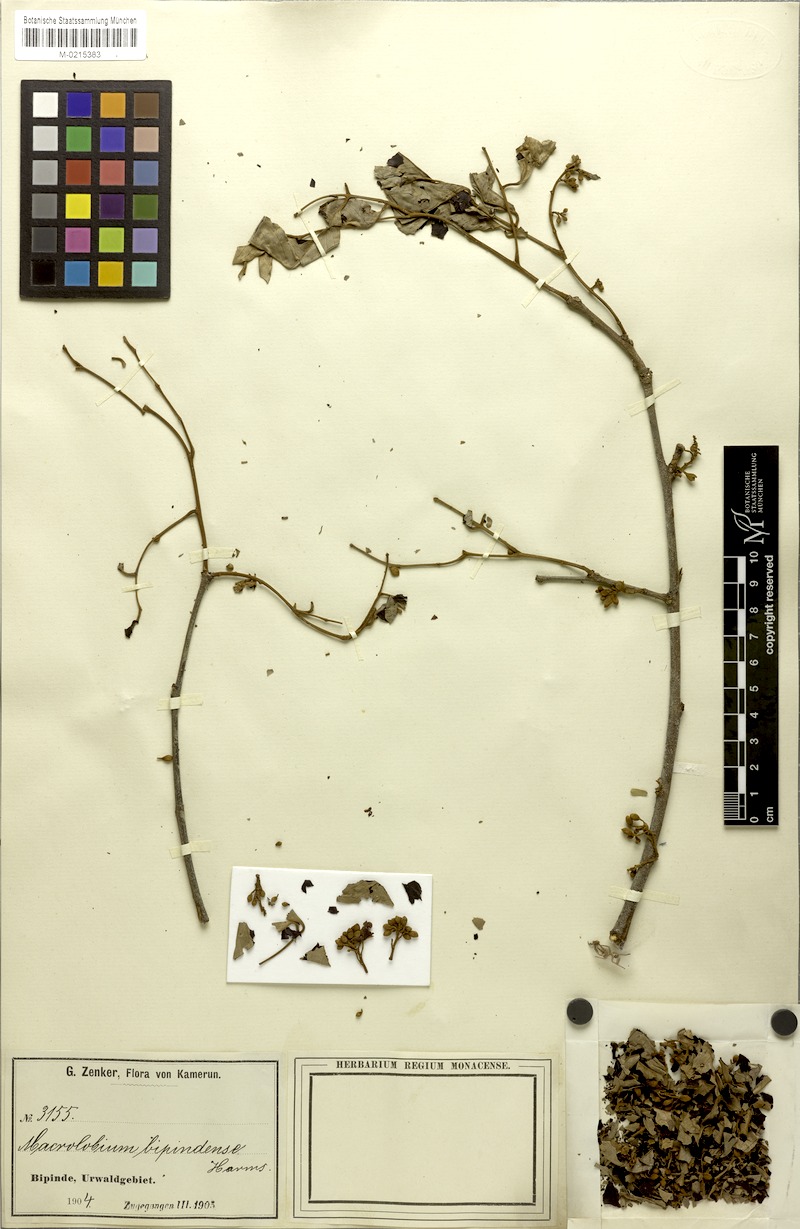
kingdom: Plantae
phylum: Tracheophyta
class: Magnoliopsida
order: Fabales
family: Fabaceae
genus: Macrolobium
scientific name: Macrolobium
